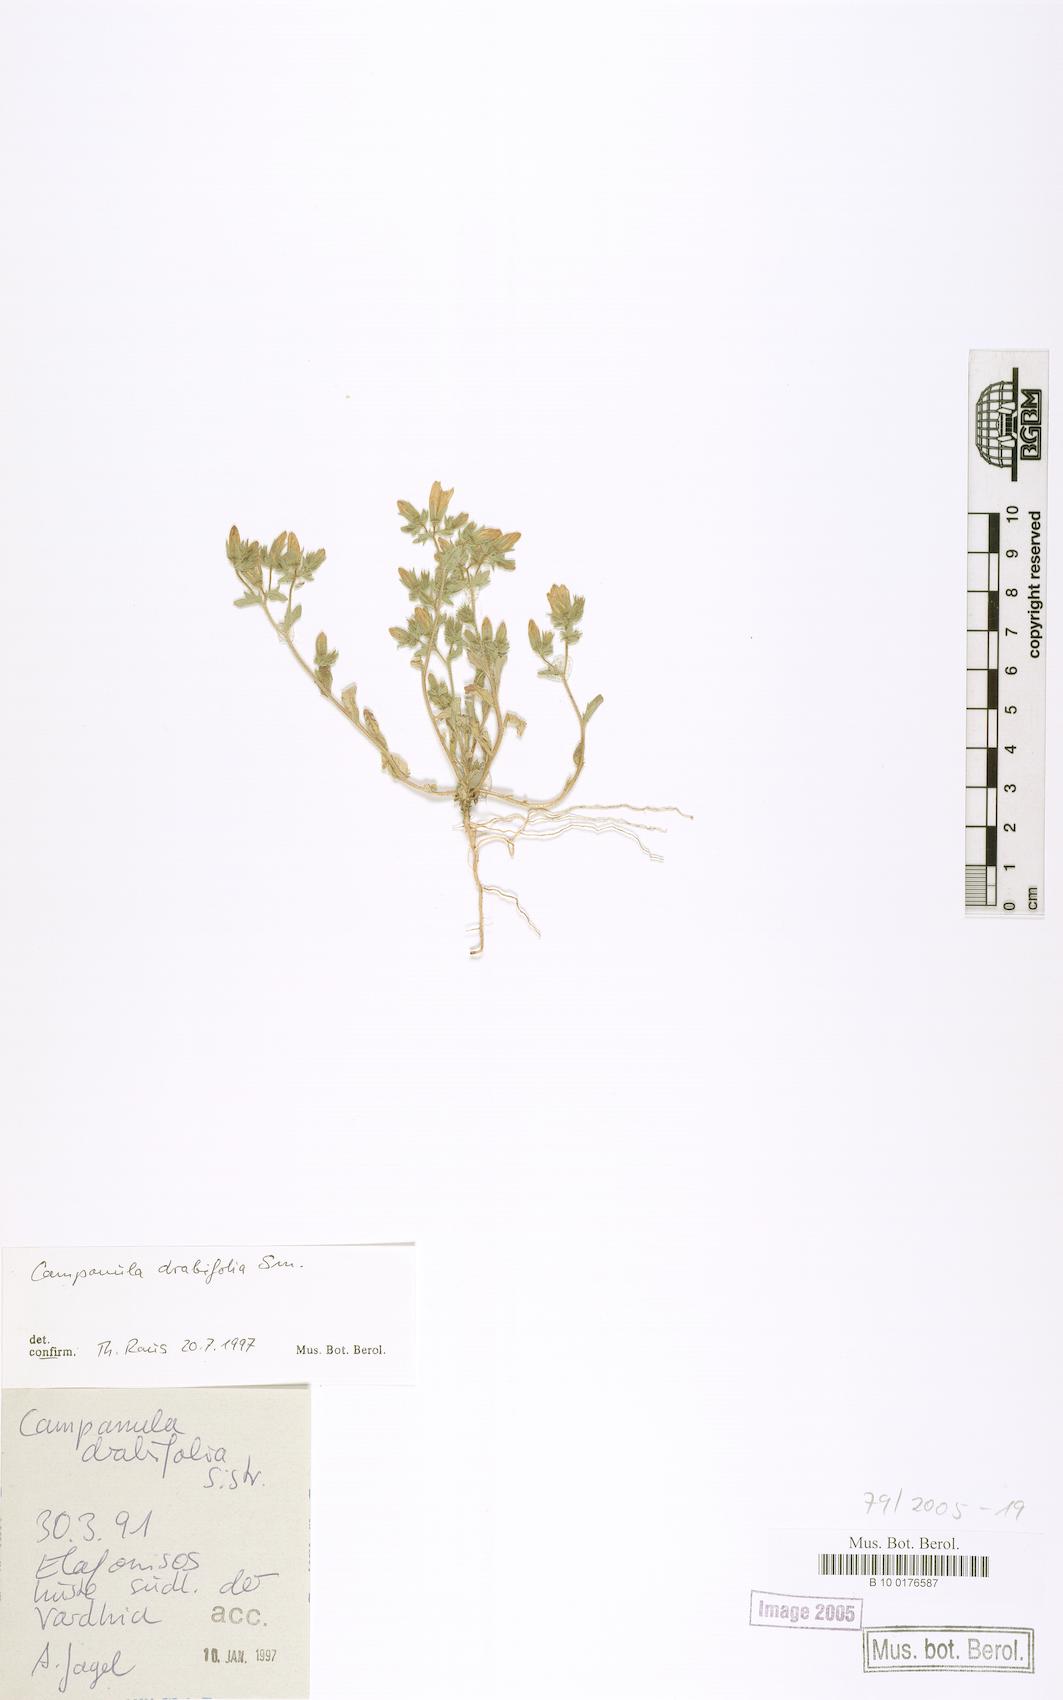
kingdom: Plantae
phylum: Tracheophyta
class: Magnoliopsida
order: Asterales
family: Campanulaceae
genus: Campanula
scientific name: Campanula drabifolia
